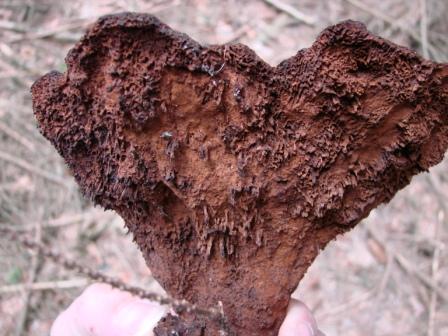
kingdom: Fungi
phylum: Basidiomycota
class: Agaricomycetes
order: Polyporales
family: Laetiporaceae
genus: Phaeolus
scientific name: Phaeolus schweinitzii
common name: brunporesvamp
